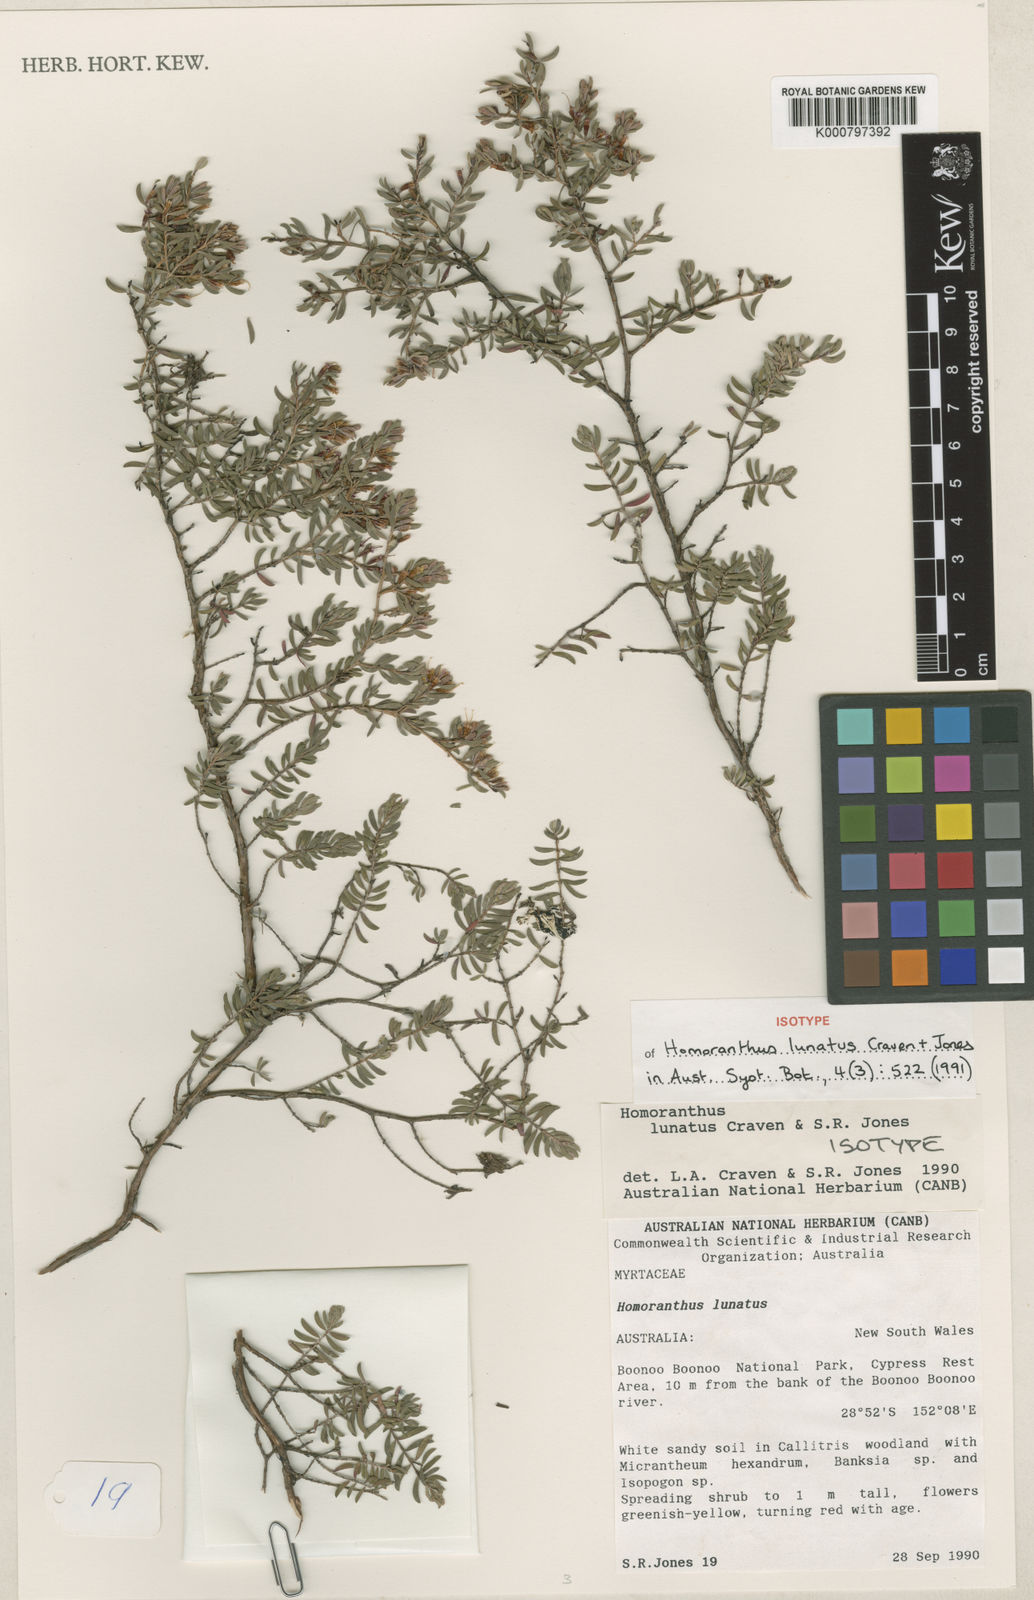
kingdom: Plantae
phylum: Tracheophyta
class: Magnoliopsida
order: Myrtales
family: Myrtaceae
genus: Homoranthus
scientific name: Homoranthus lunatus
